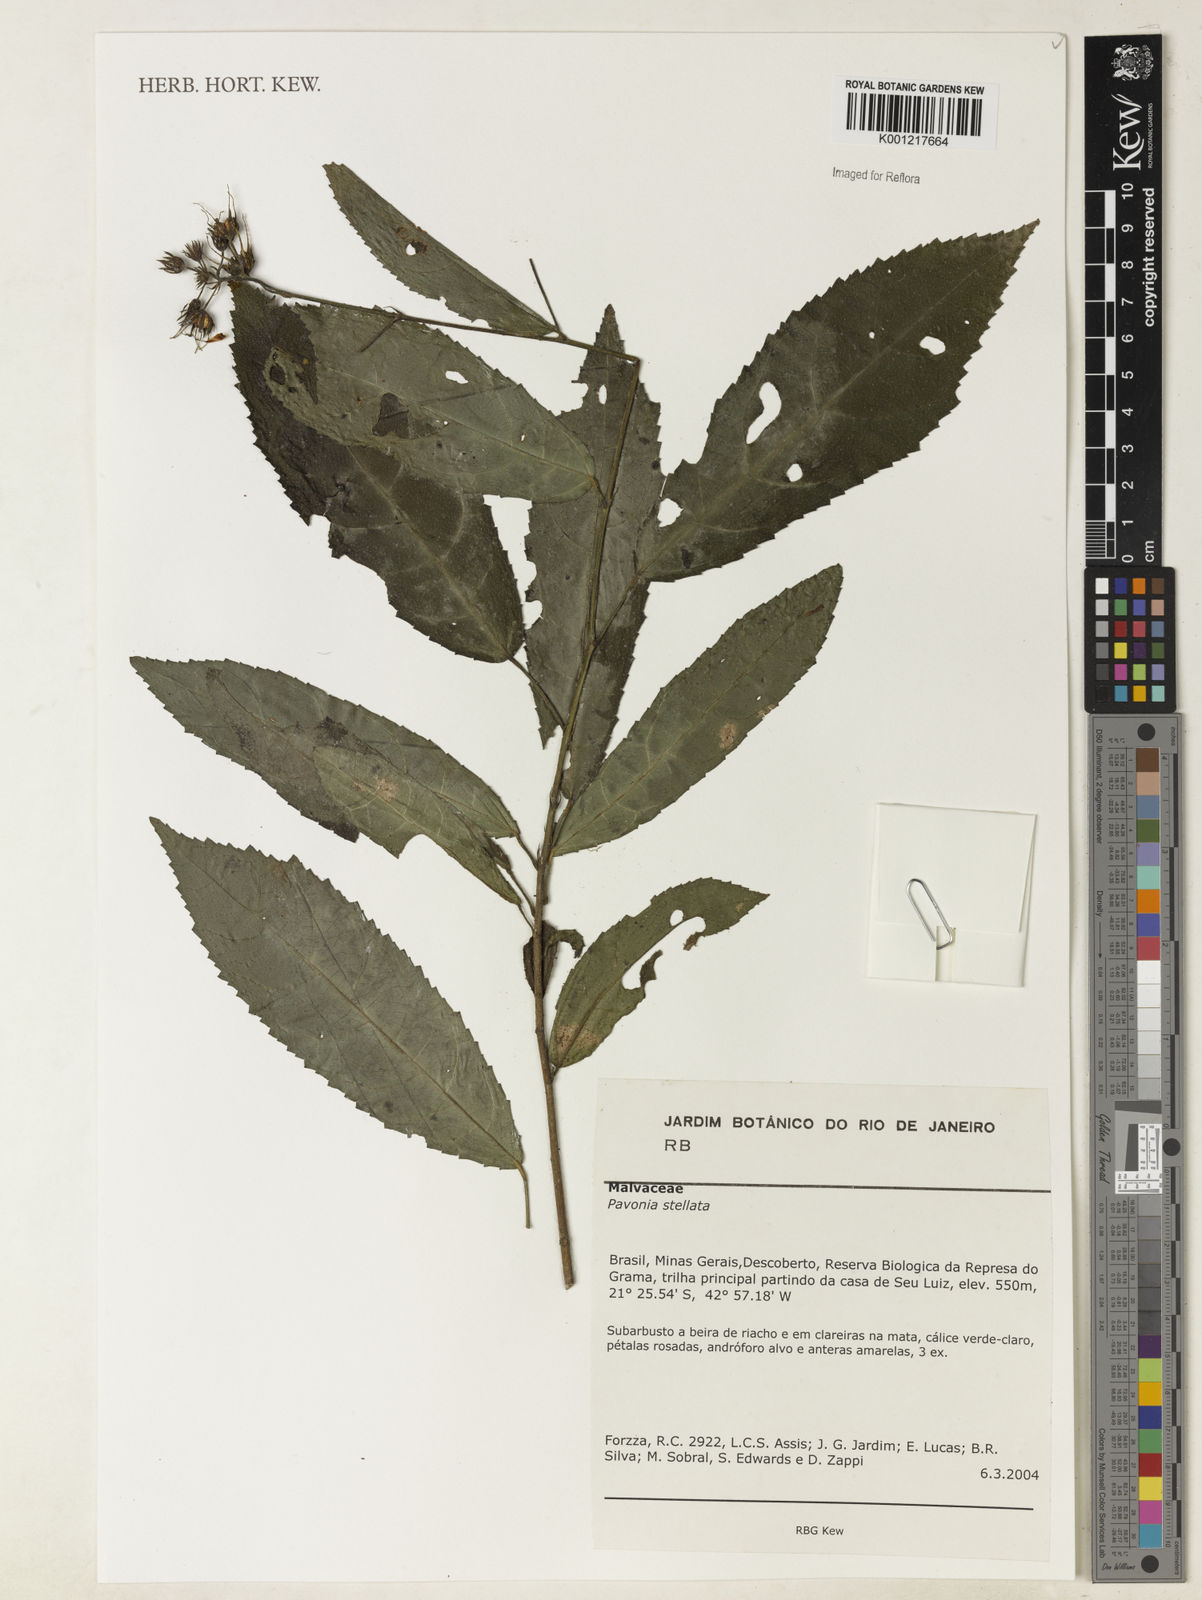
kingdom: Plantae
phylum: Tracheophyta
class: Magnoliopsida
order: Malvales
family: Malvaceae
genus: Pavonia
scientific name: Pavonia fruticosa
